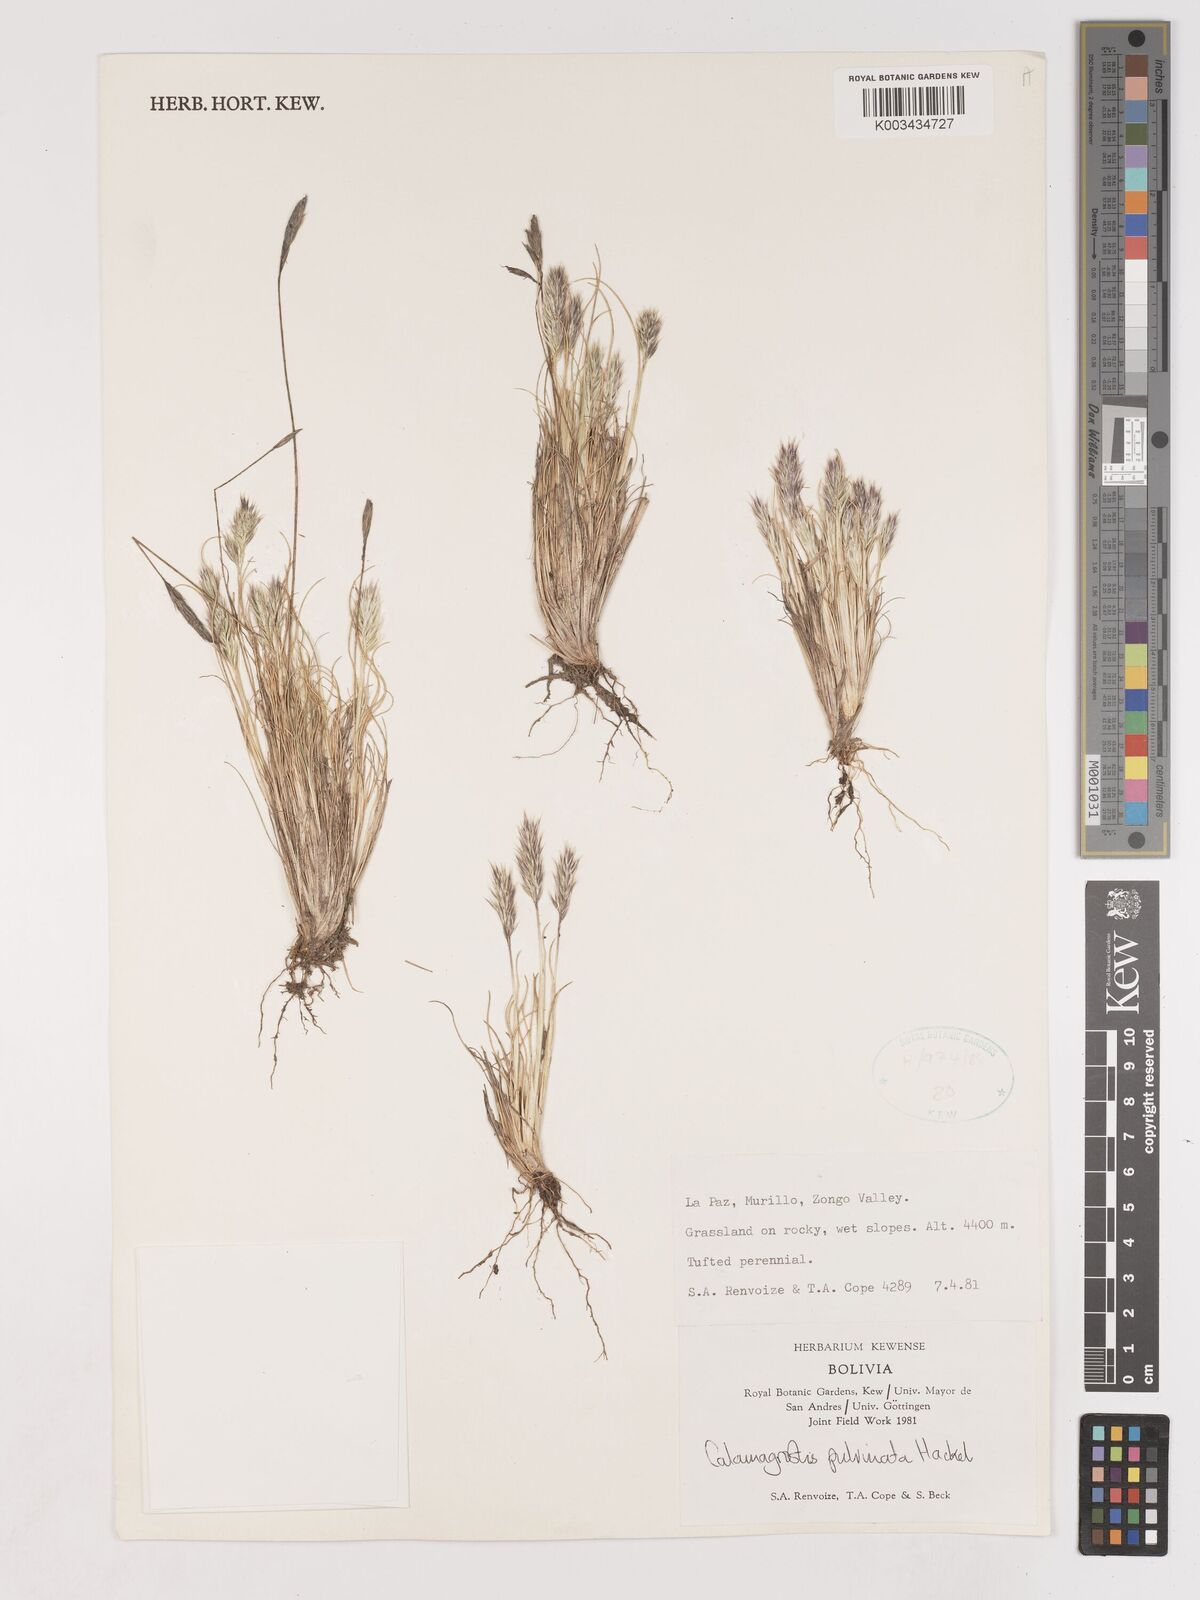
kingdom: Plantae
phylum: Tracheophyta
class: Liliopsida
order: Poales
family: Poaceae
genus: Cinnagrostis
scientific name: Cinnagrostis vicunarum
